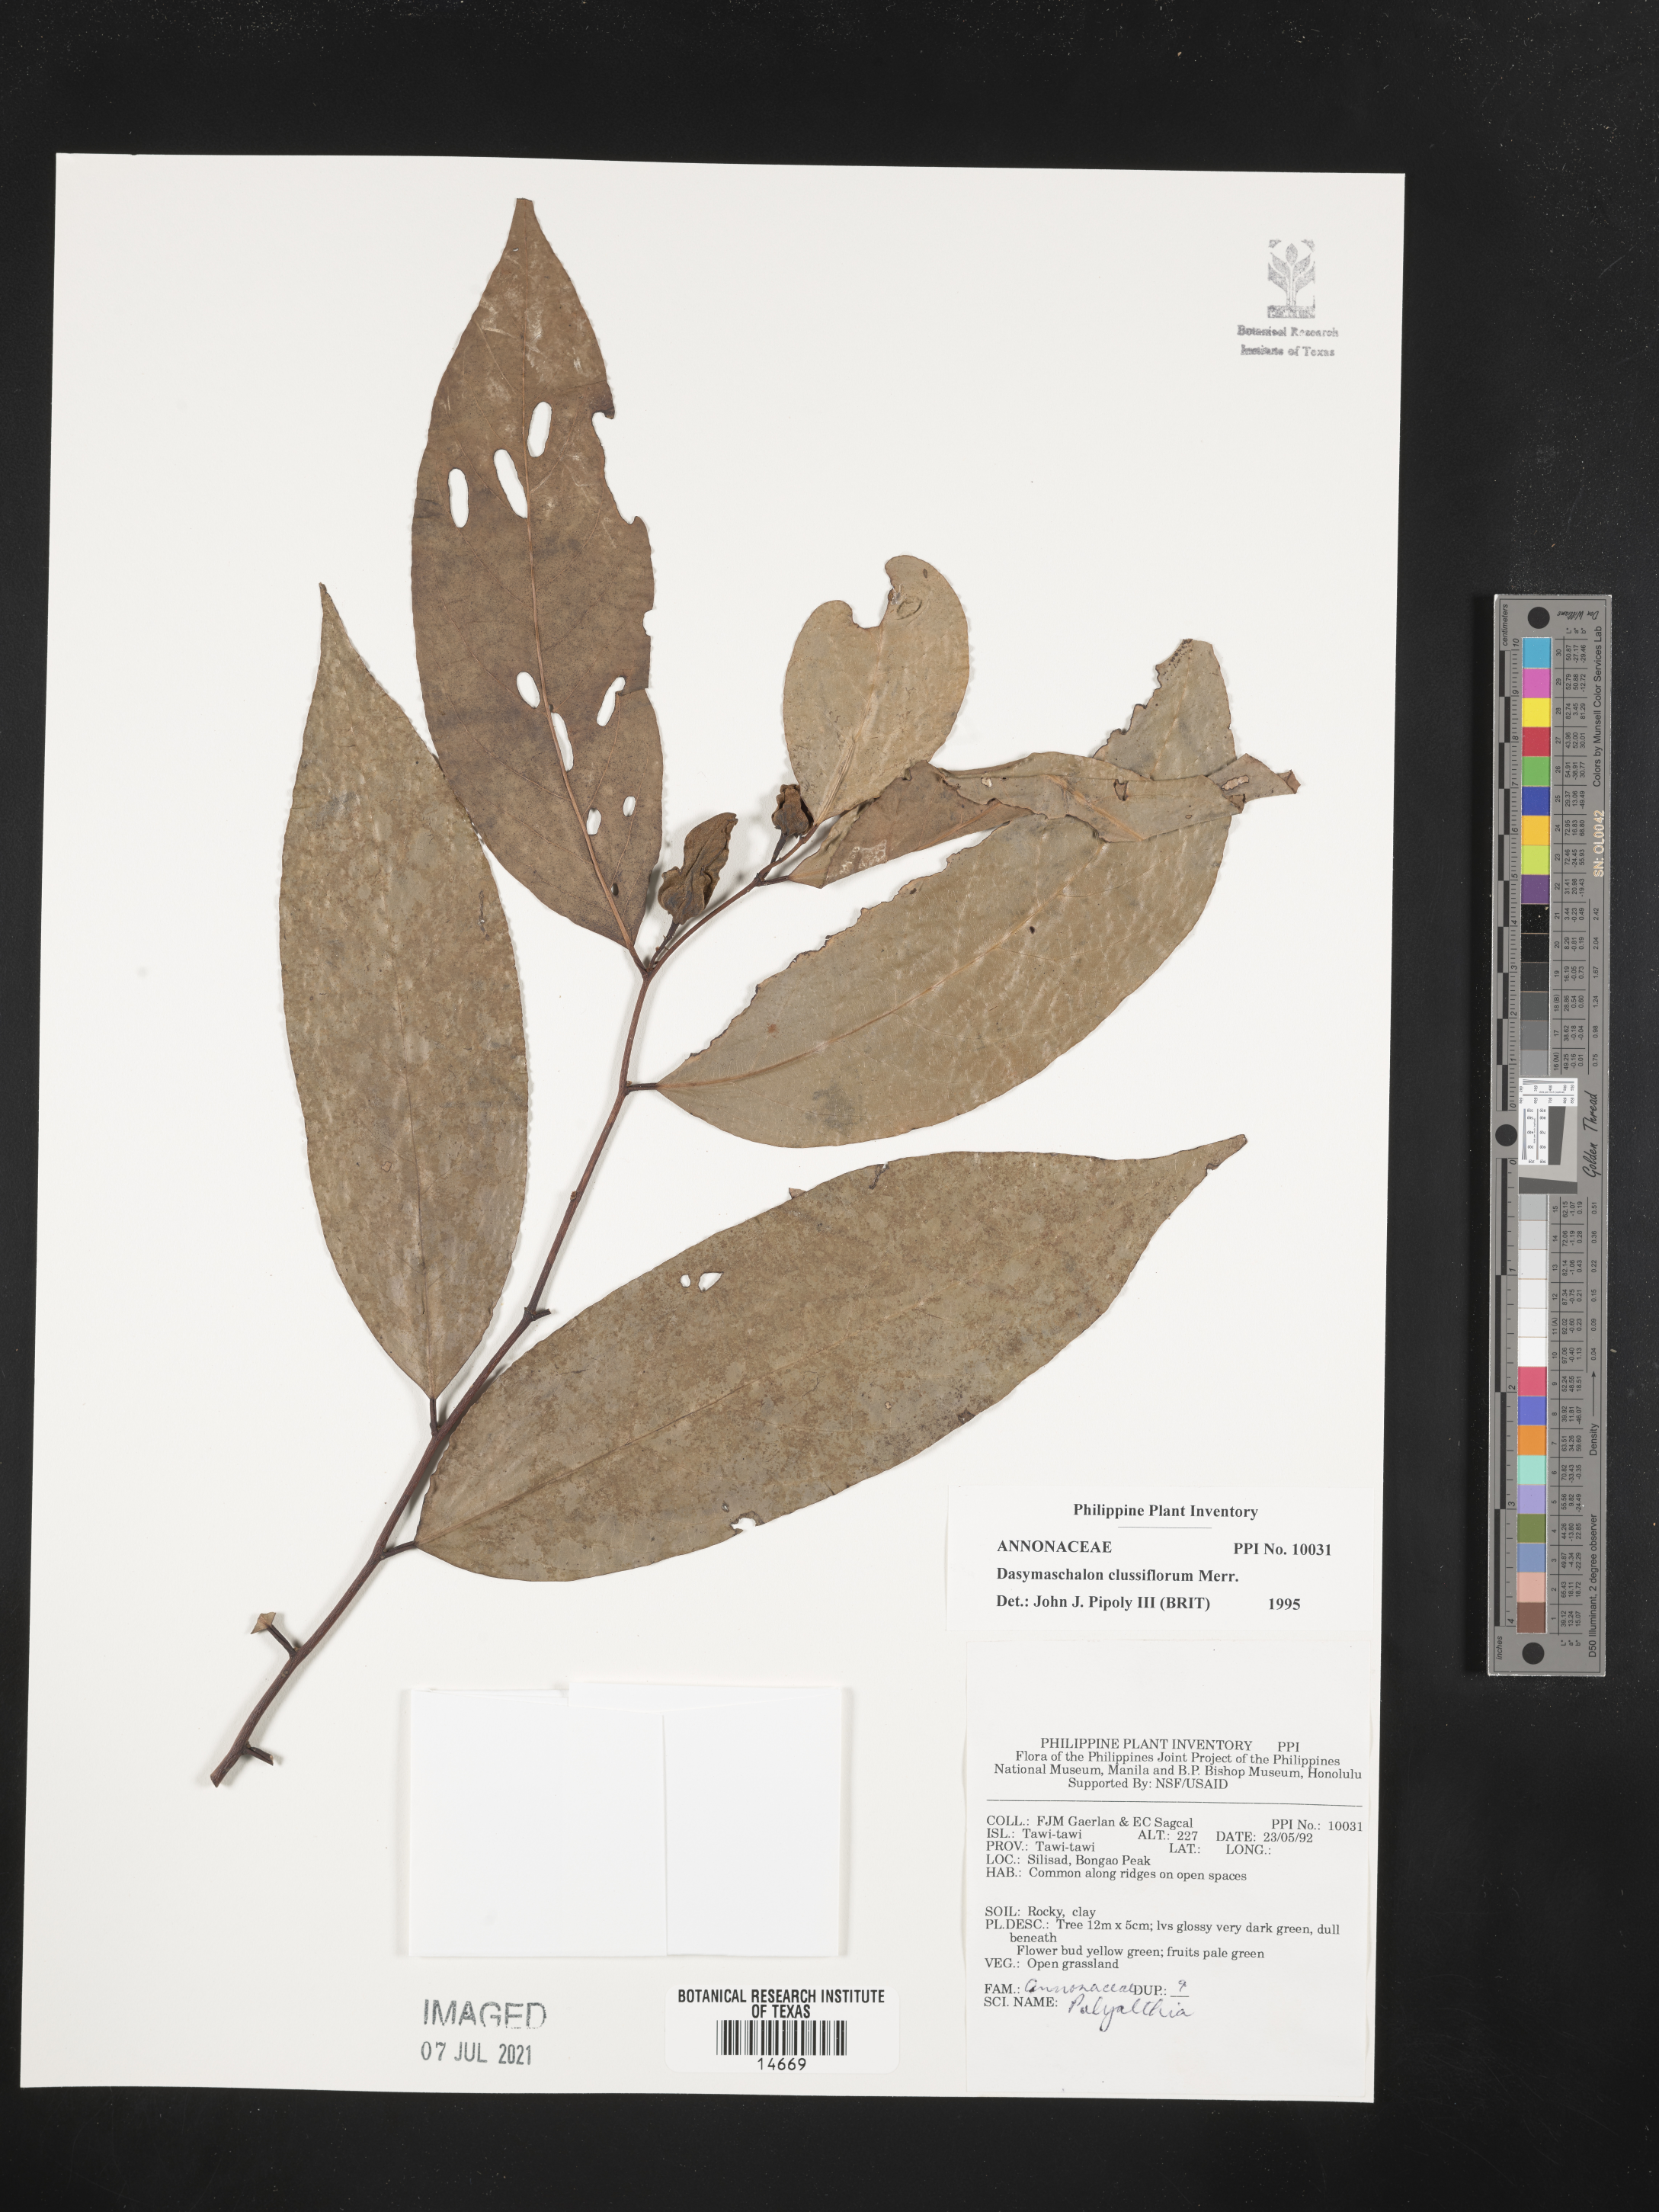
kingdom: Plantae
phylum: Tracheophyta
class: Magnoliopsida
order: Magnoliales
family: Annonaceae
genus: Dasymaschalon
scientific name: Dasymaschalon clusiflorum
